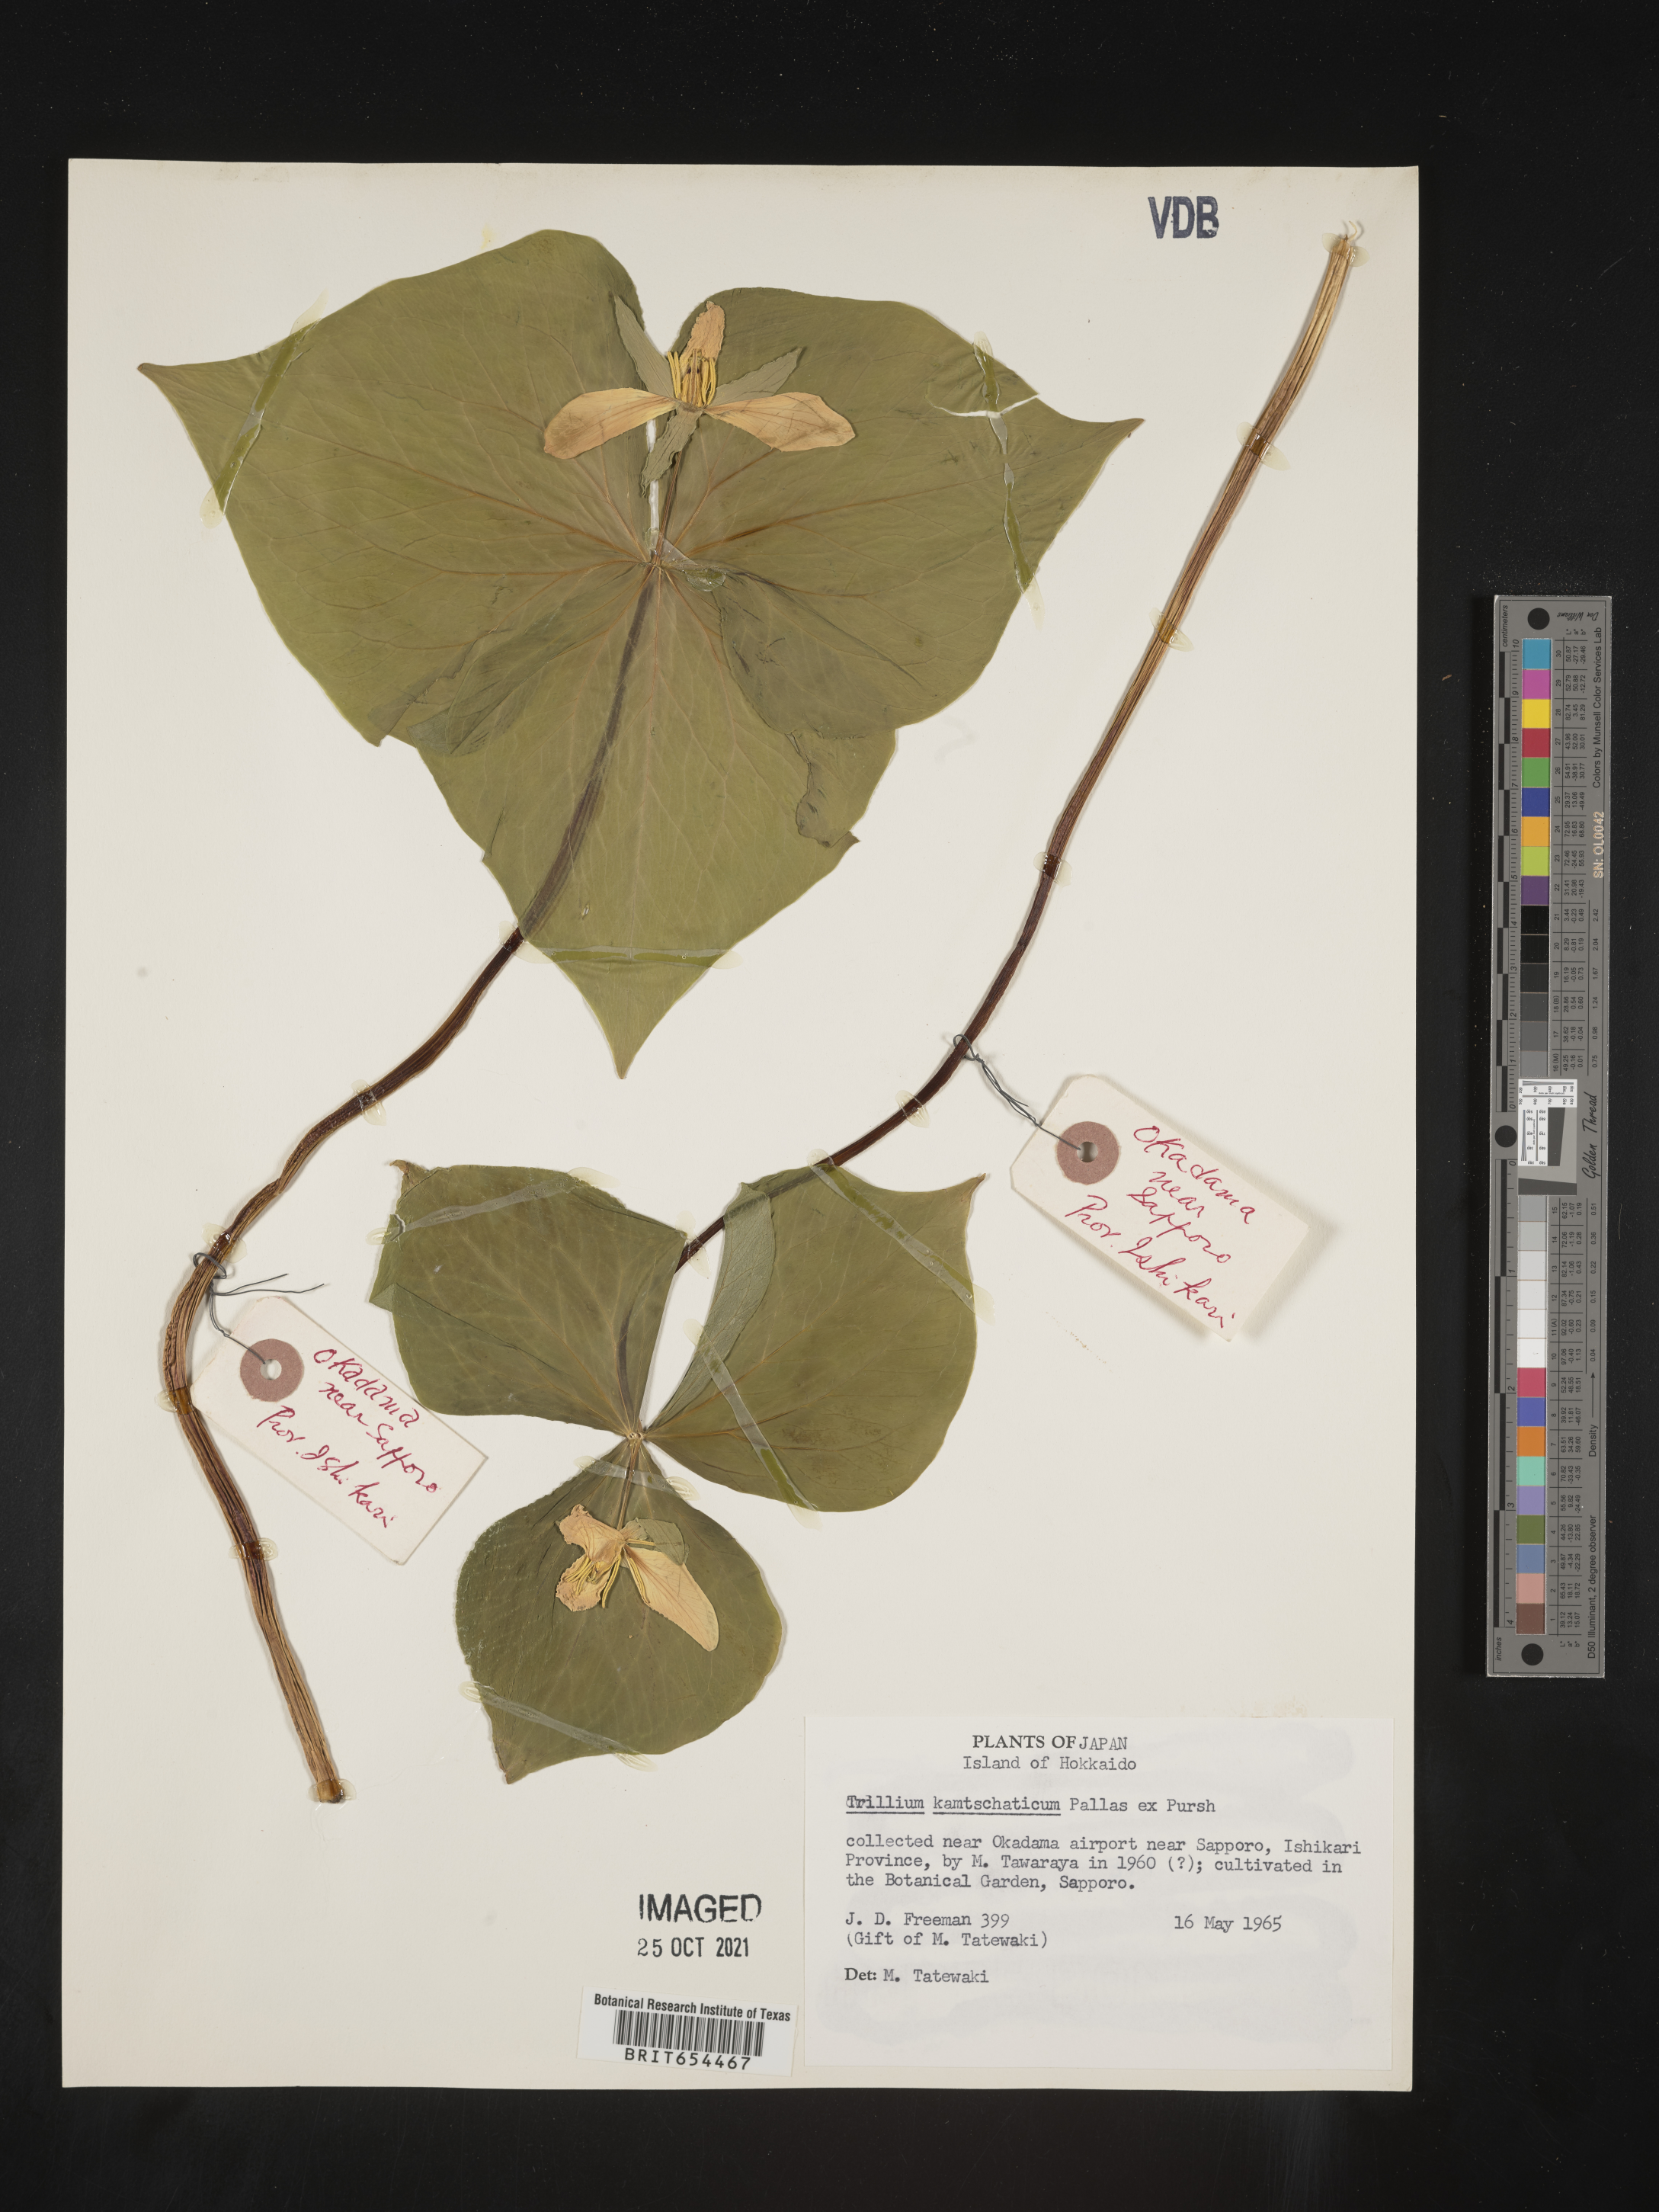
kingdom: Plantae
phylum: Tracheophyta
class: Liliopsida
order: Liliales
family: Melanthiaceae
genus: Trillium
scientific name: Trillium
